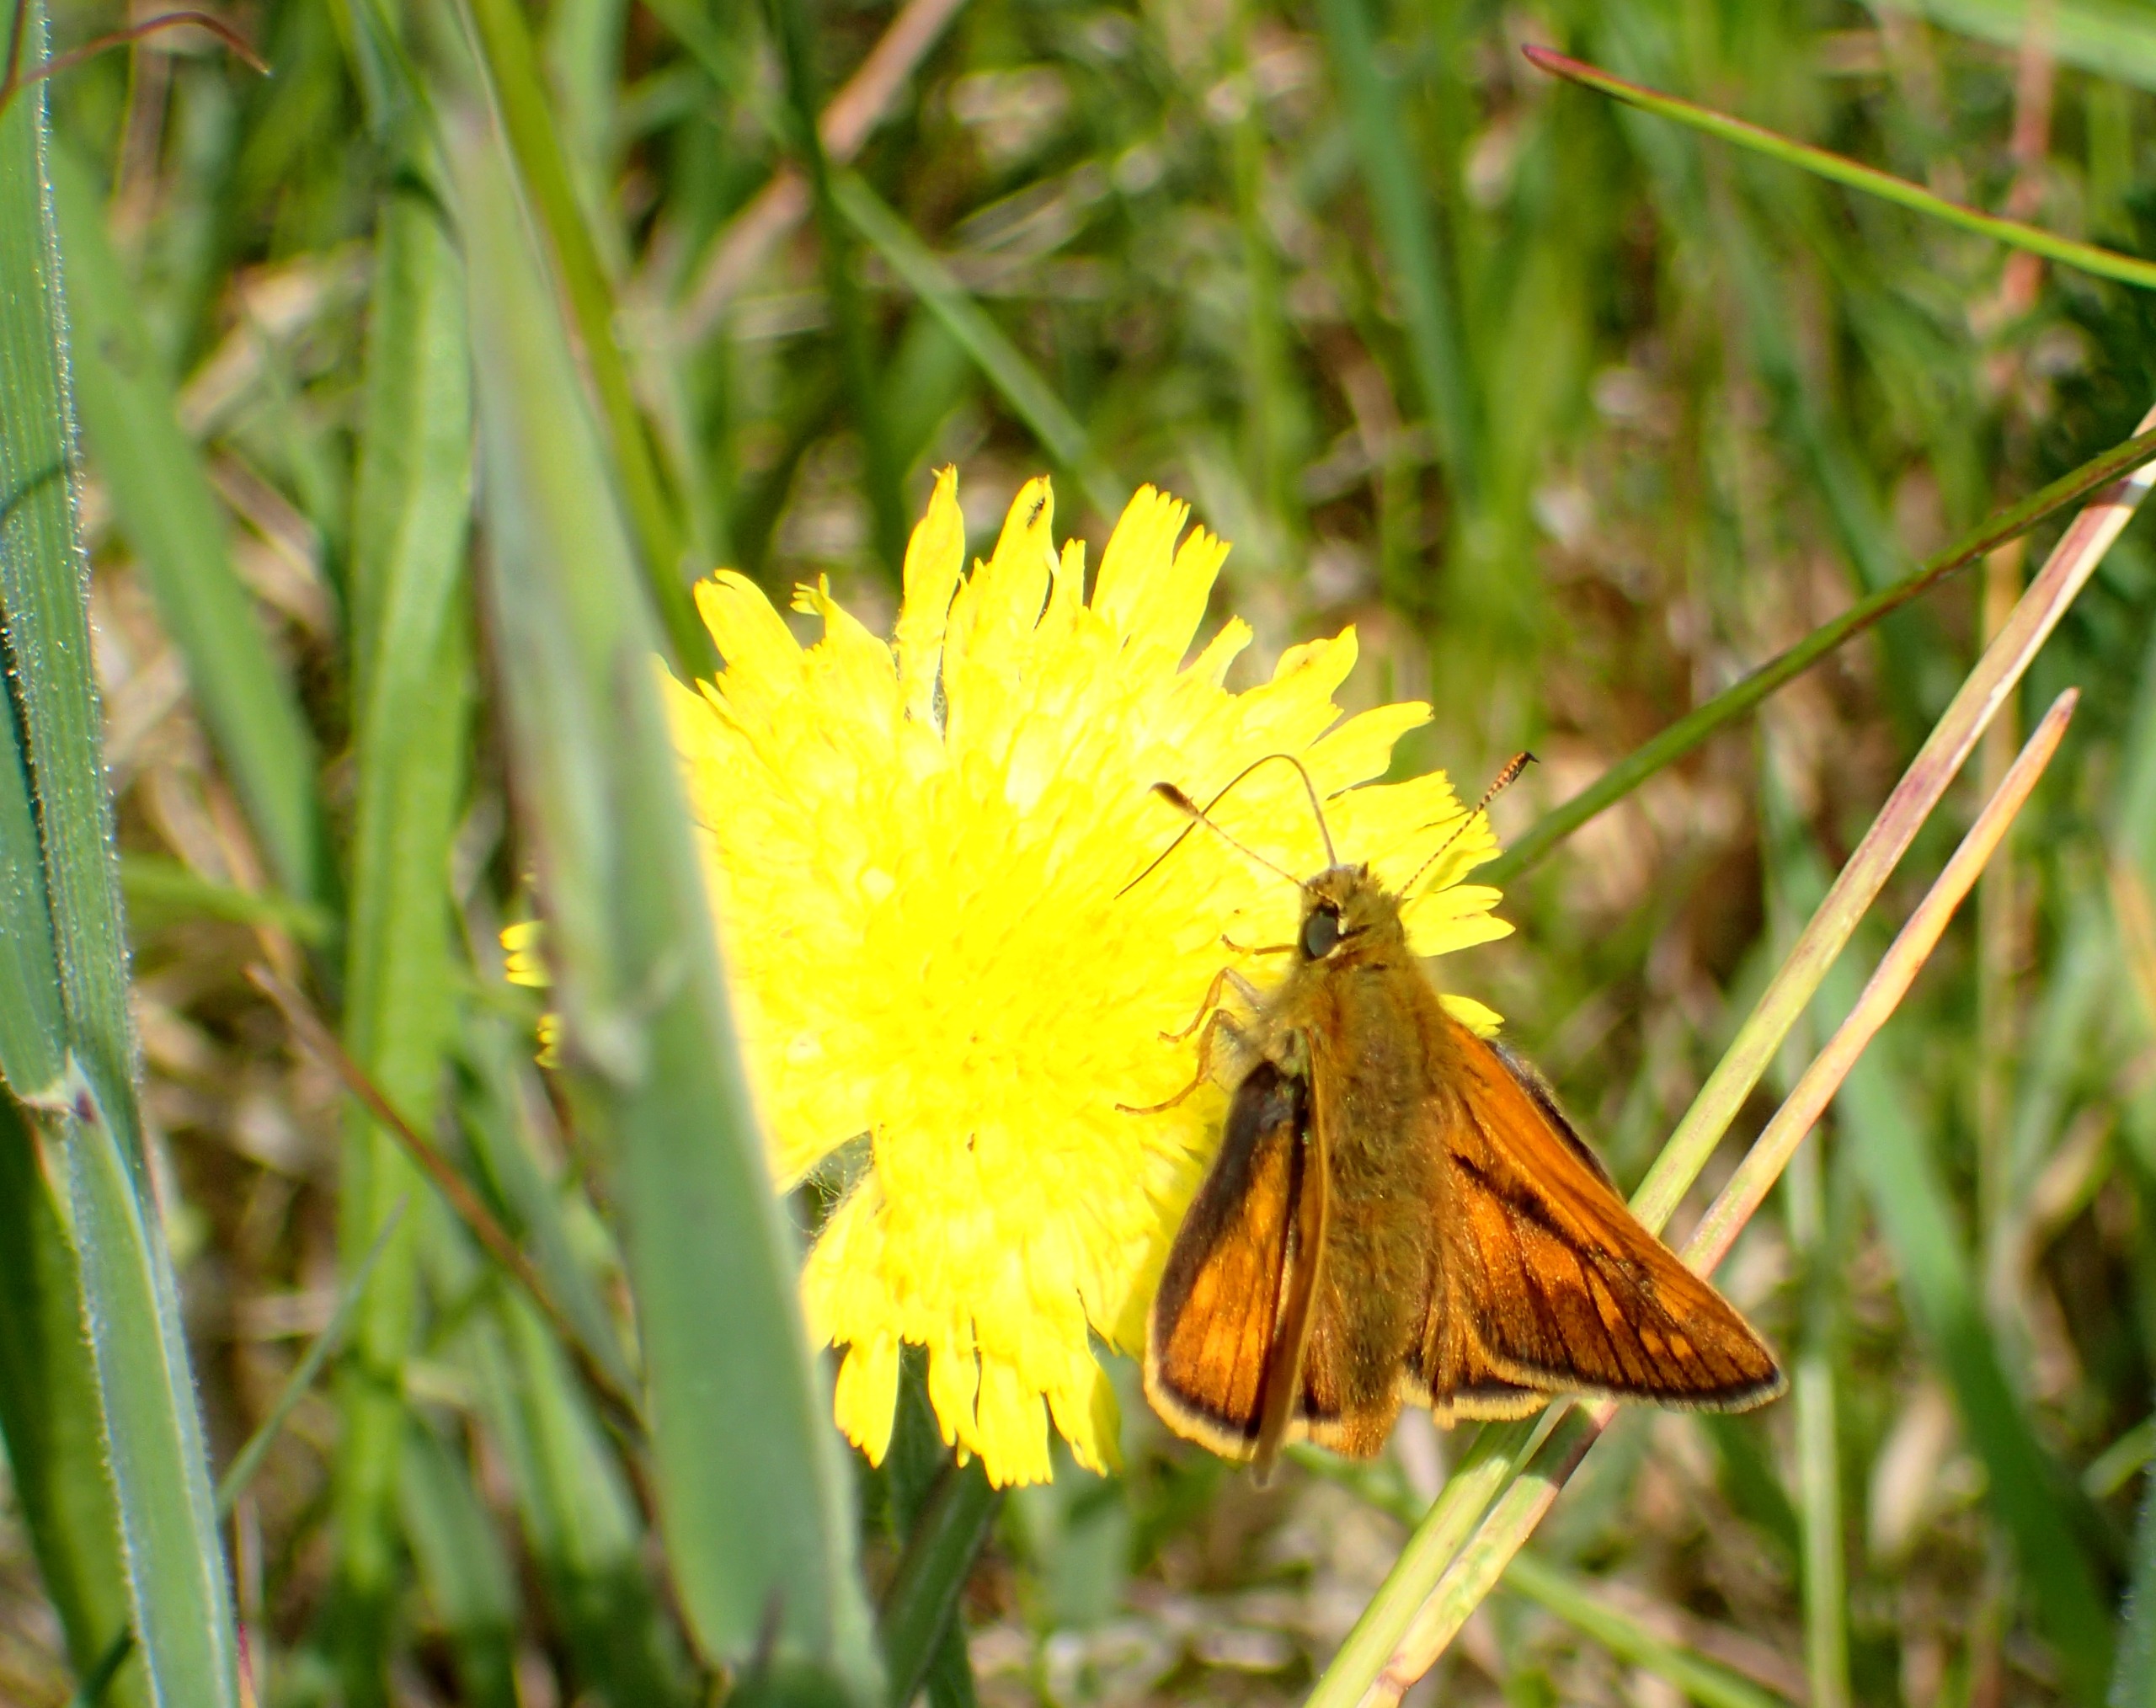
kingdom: Animalia
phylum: Arthropoda
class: Insecta
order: Lepidoptera
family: Hesperiidae
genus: Ochlodes
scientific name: Ochlodes venata
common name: Stor bredpande
